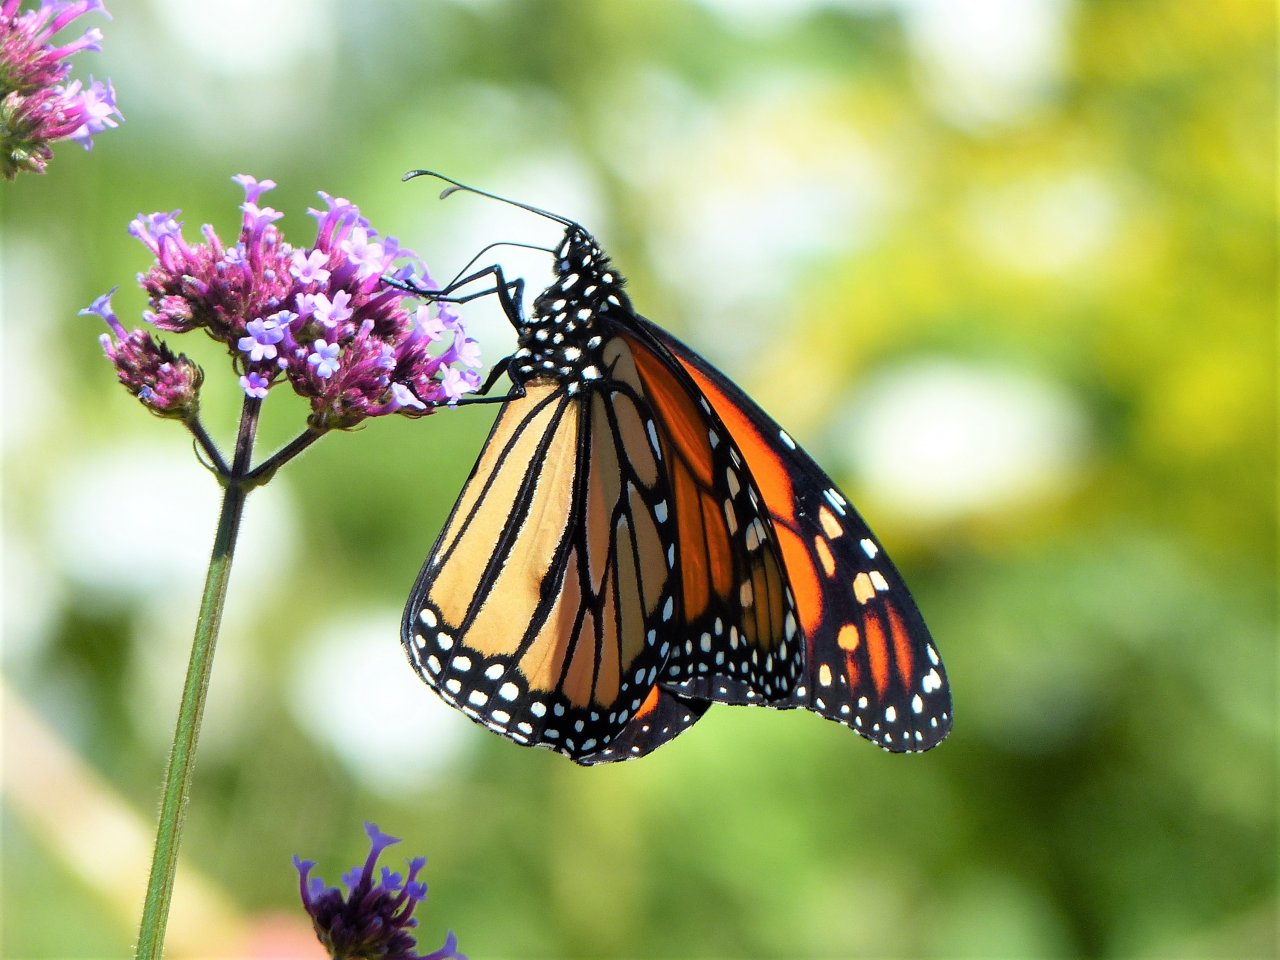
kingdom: Animalia
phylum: Arthropoda
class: Insecta
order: Lepidoptera
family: Nymphalidae
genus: Danaus
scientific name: Danaus plexippus
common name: Monarch
